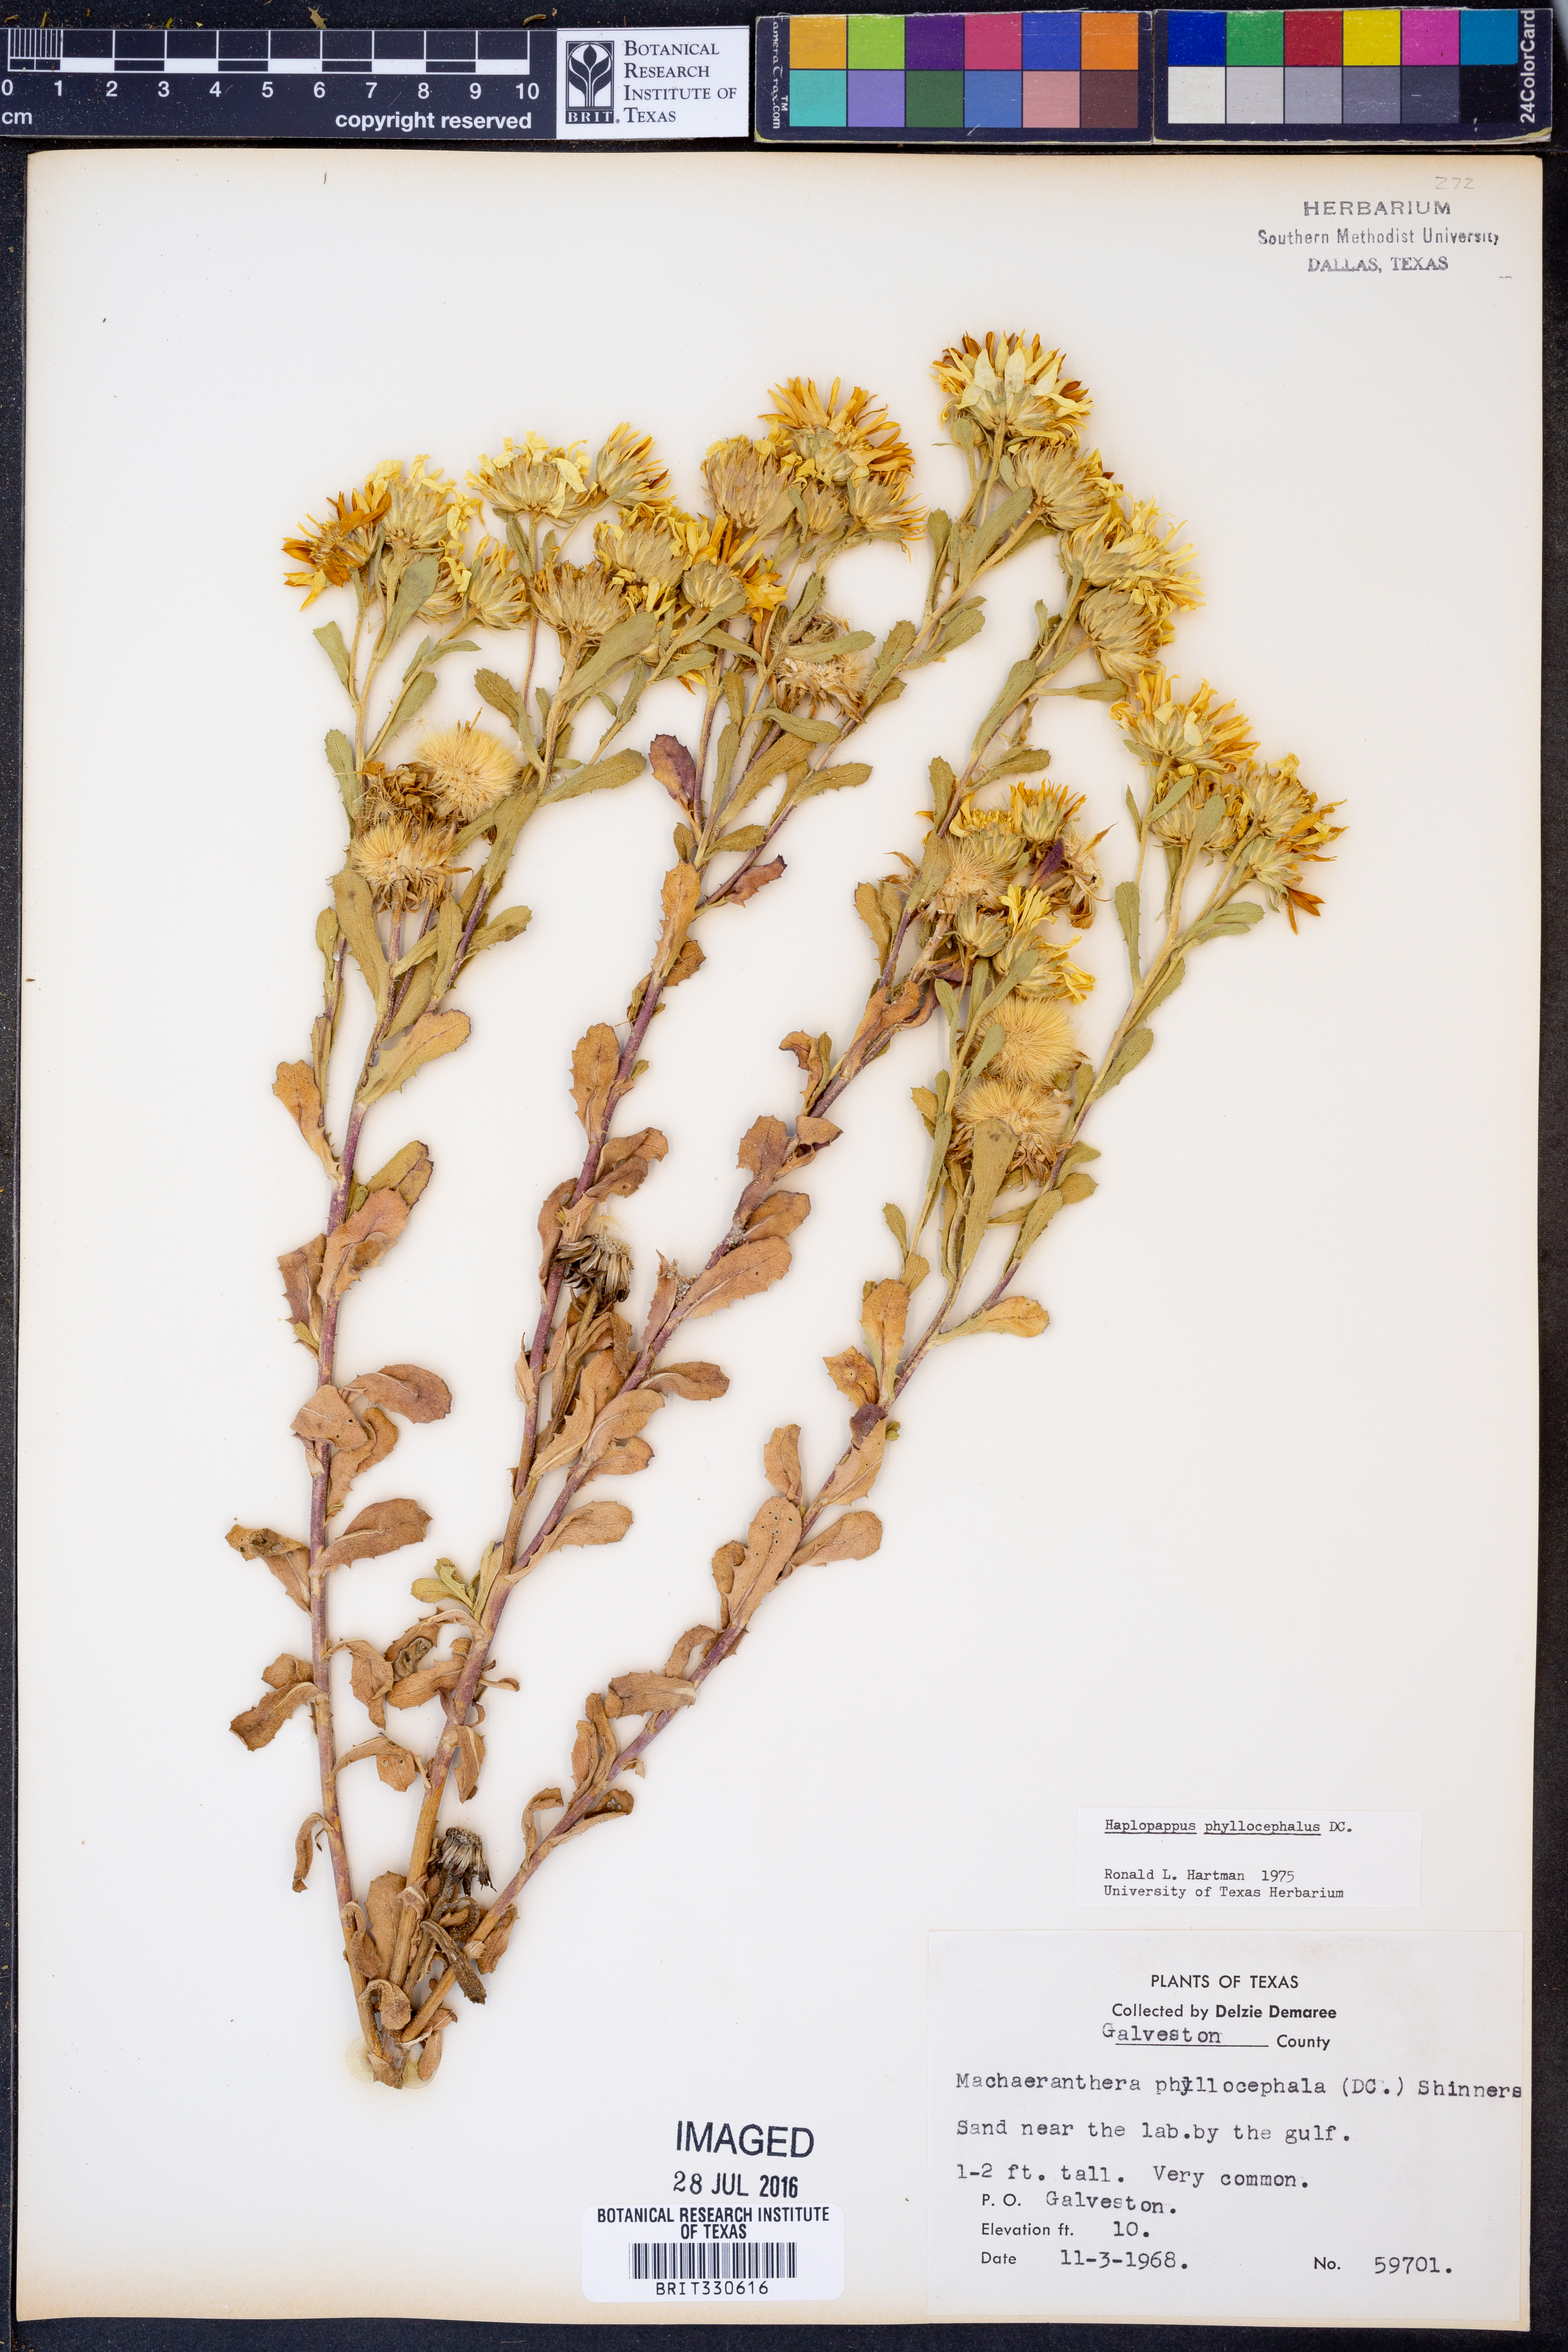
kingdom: Plantae
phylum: Tracheophyta
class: Magnoliopsida
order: Asterales
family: Asteraceae
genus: Rayjacksonia
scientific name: Rayjacksonia phyllocephala
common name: Gulf coast camphor daisy
